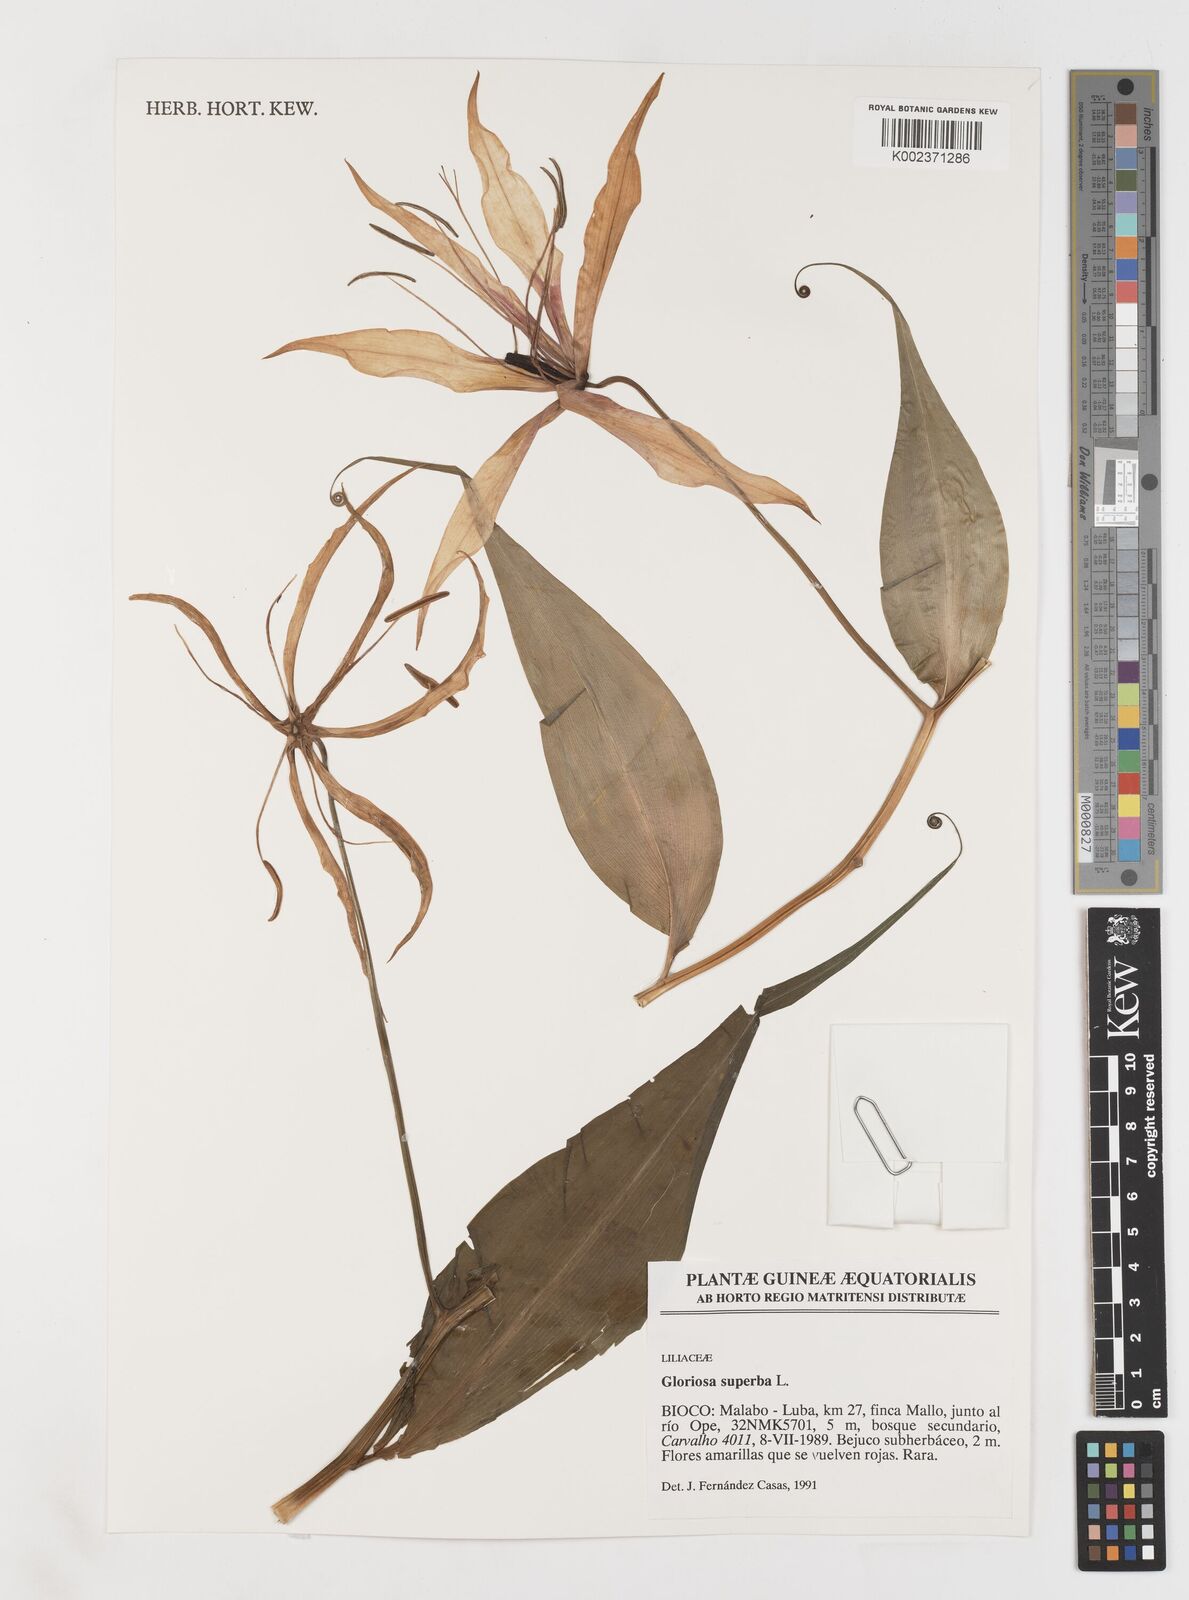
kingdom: Plantae
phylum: Tracheophyta
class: Liliopsida
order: Liliales
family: Colchicaceae
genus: Gloriosa
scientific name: Gloriosa simplex
